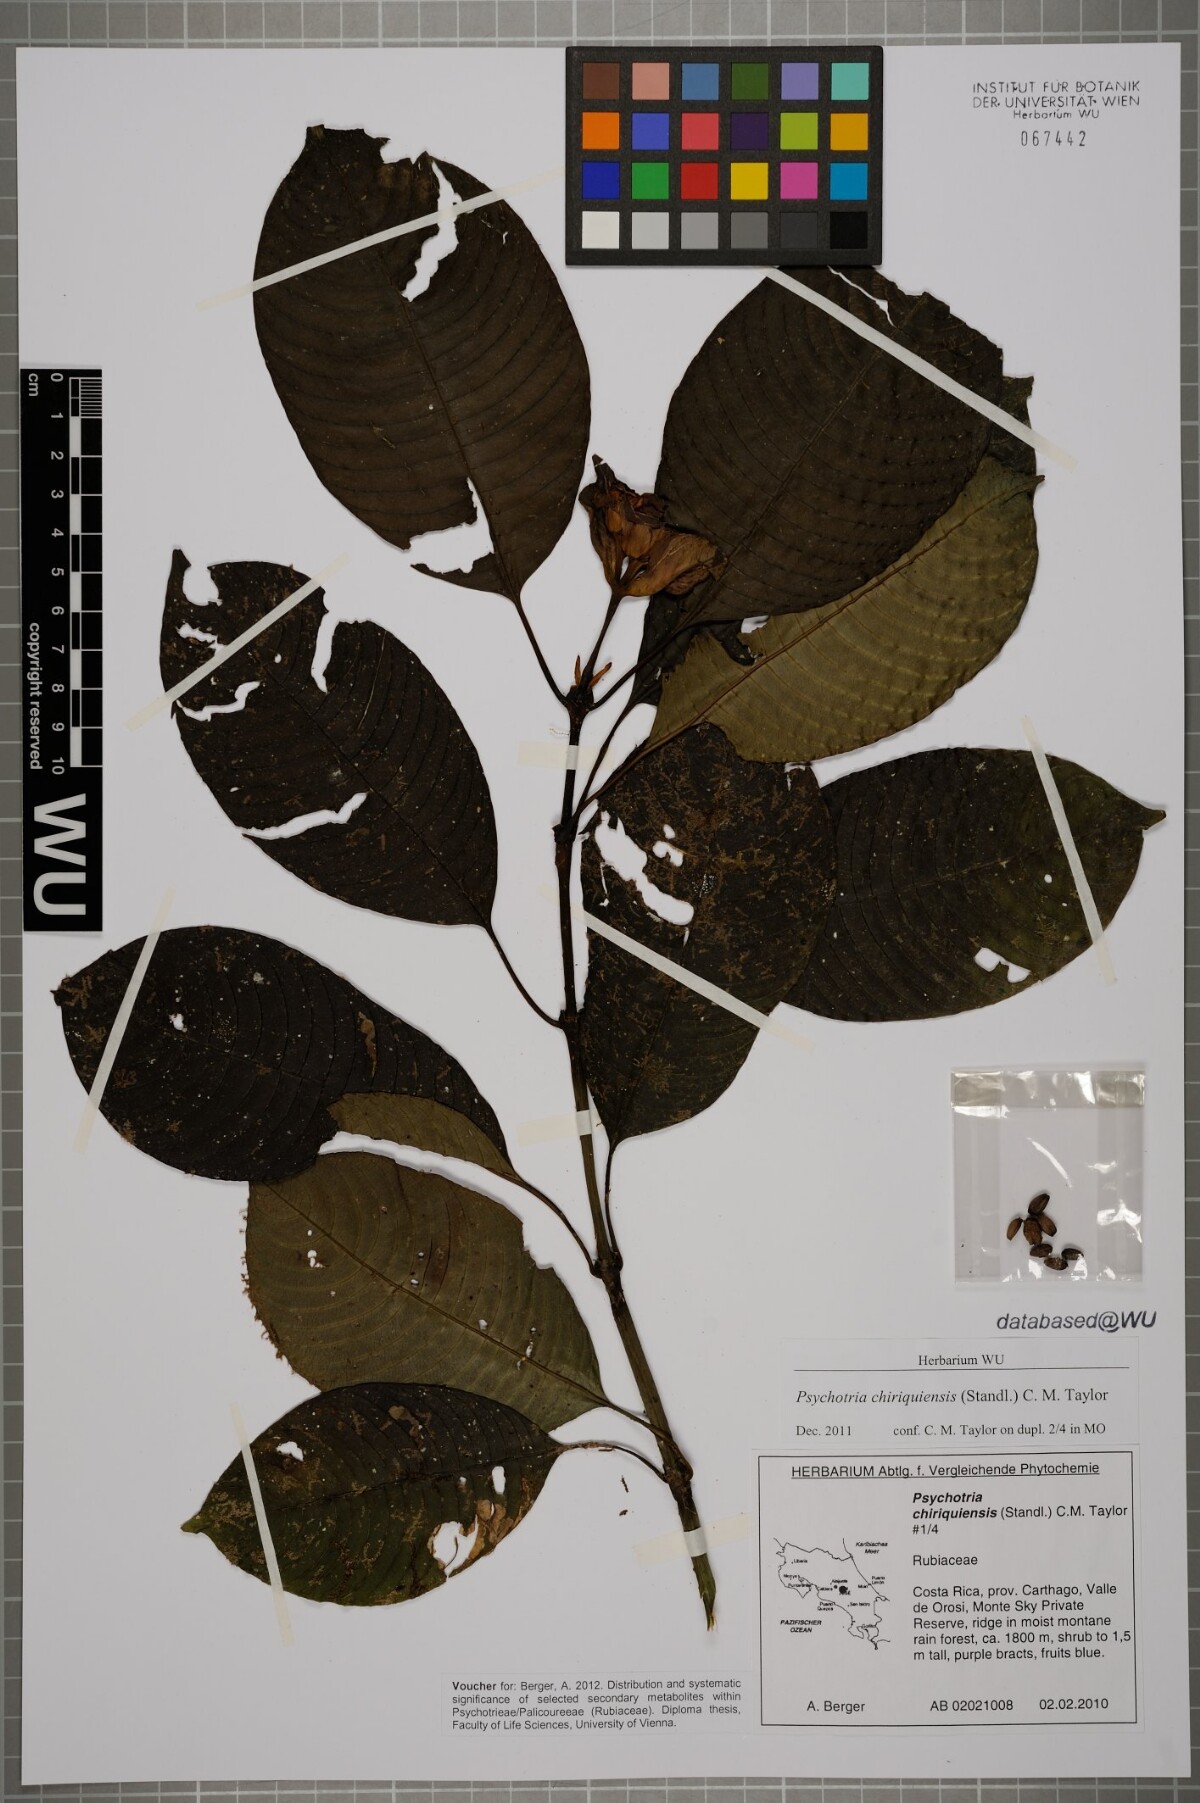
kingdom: Plantae
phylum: Tracheophyta
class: Magnoliopsida
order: Gentianales
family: Rubiaceae
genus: Palicourea
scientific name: Palicourea chiriquiensis
